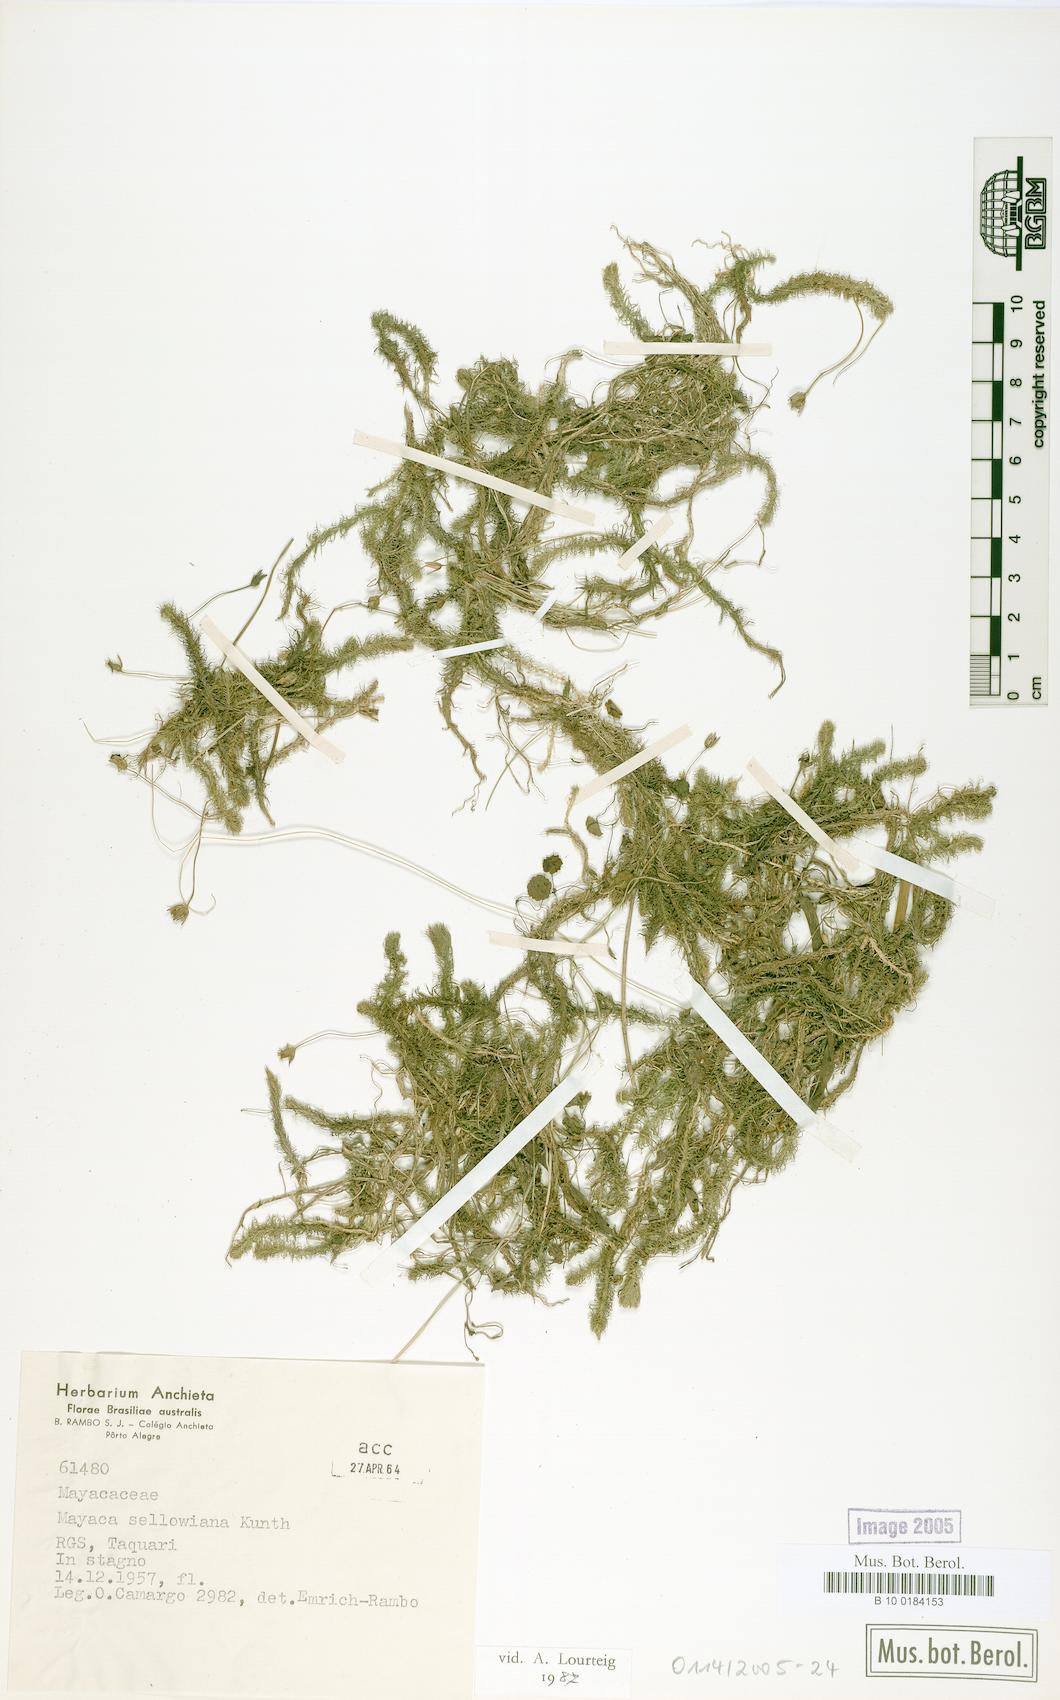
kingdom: Plantae
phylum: Tracheophyta
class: Liliopsida
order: Poales
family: Mayacaceae
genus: Mayaca
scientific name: Mayaca sellowiana
